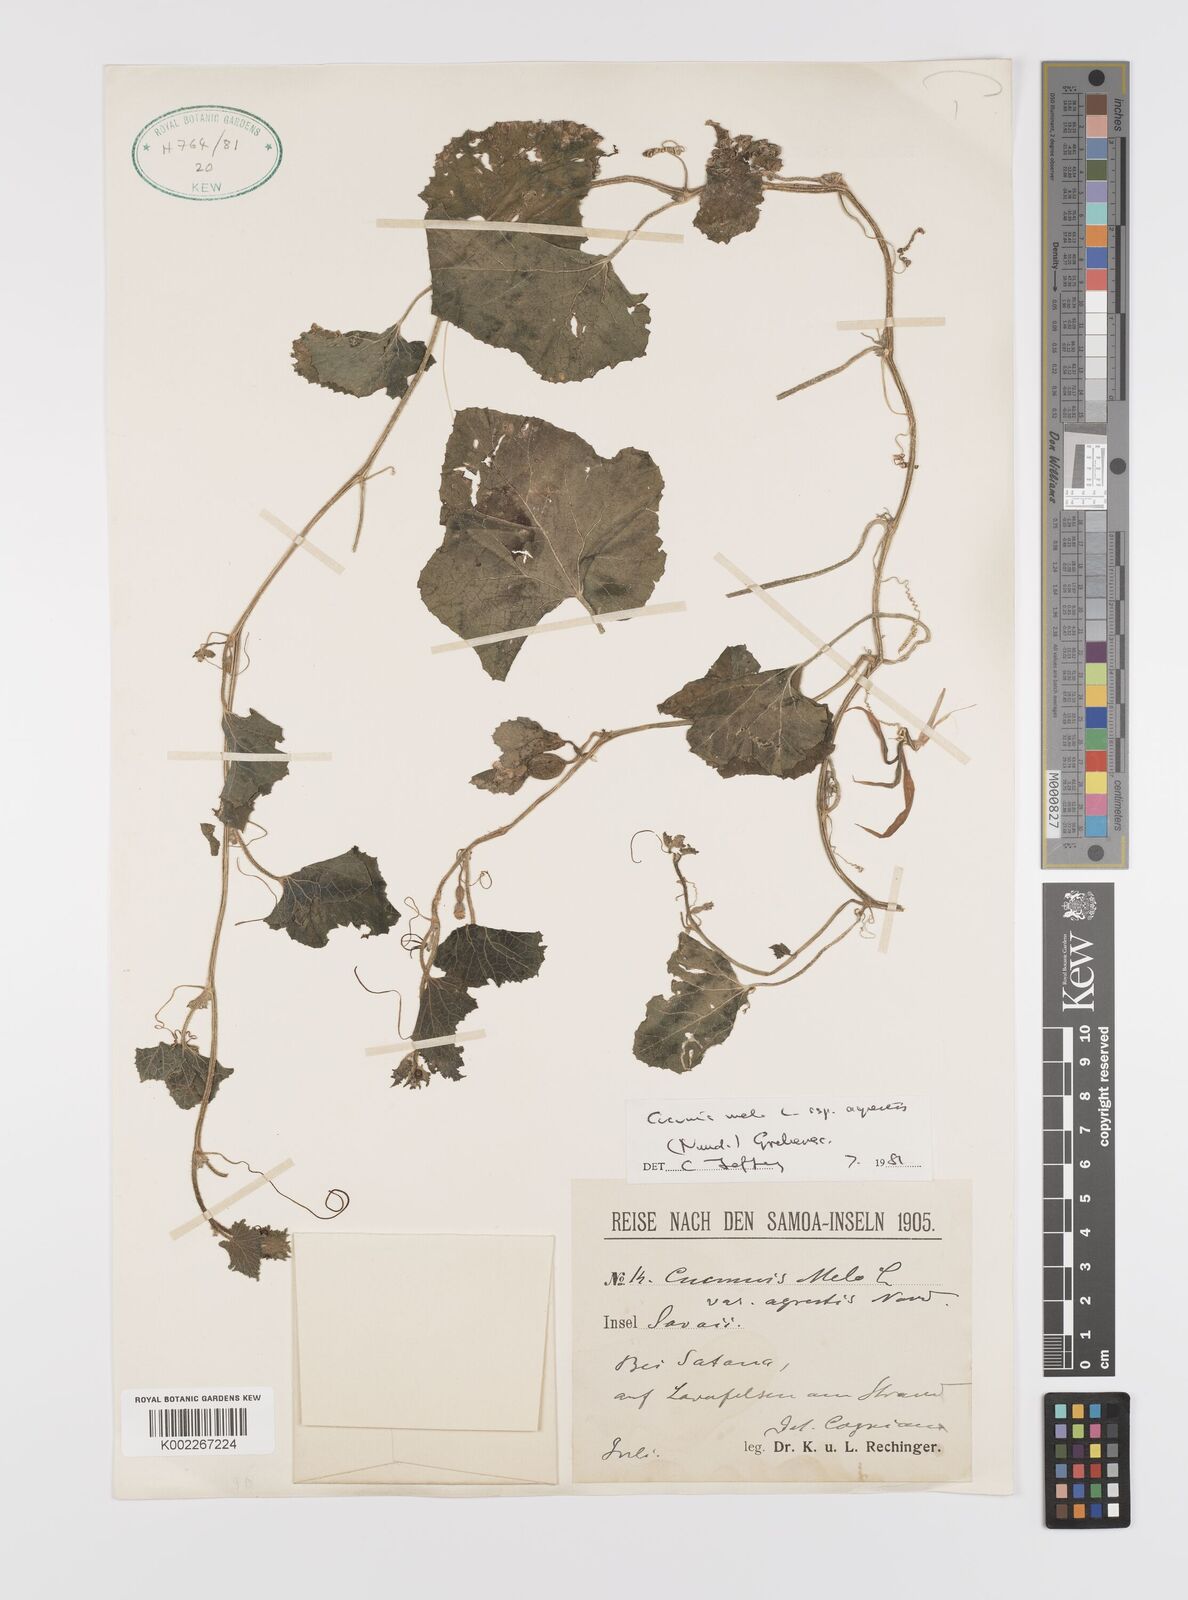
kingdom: Plantae
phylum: Tracheophyta
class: Magnoliopsida
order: Cucurbitales
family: Cucurbitaceae
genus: Cucumis
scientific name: Cucumis melo
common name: Melon
